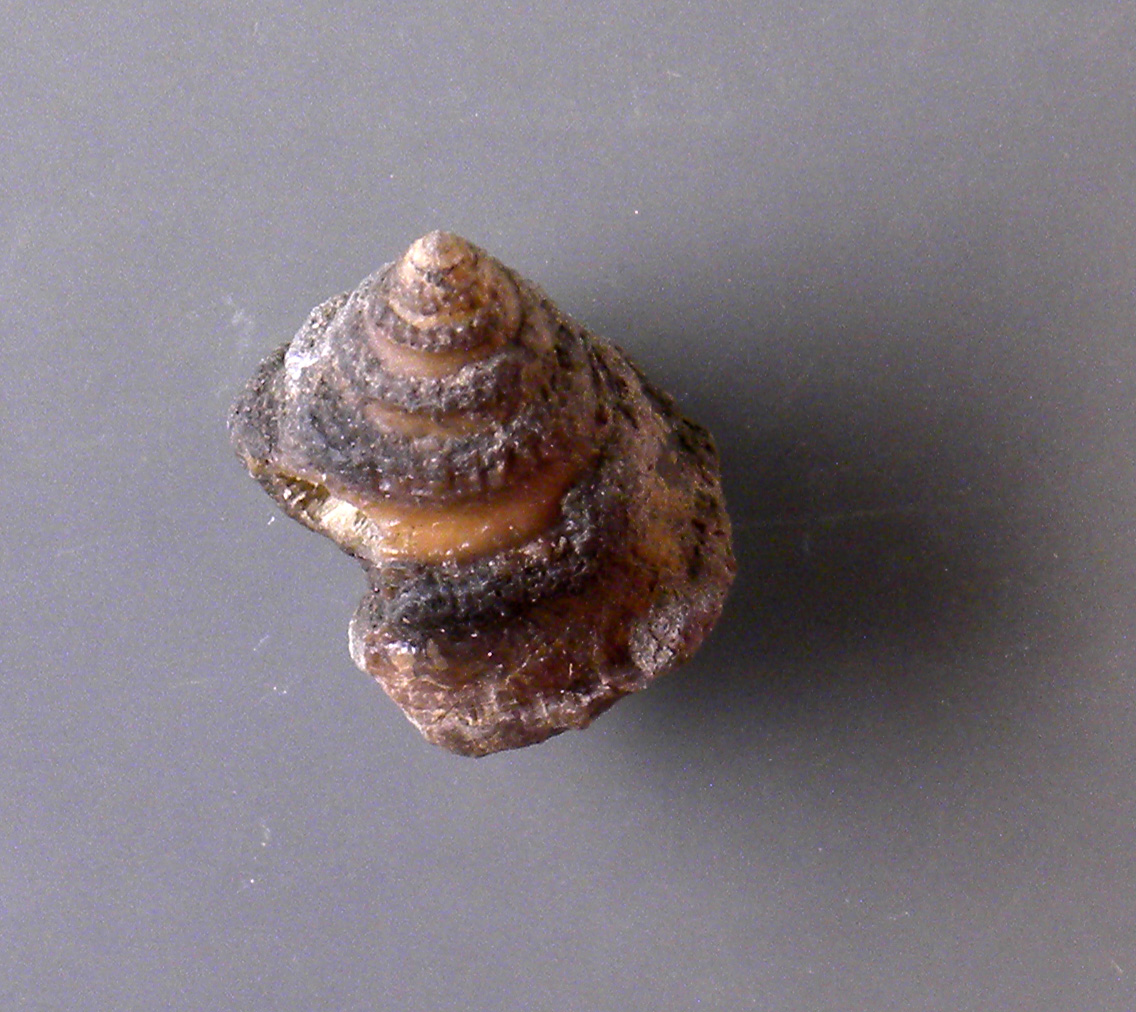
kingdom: Animalia
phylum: Mollusca
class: Gastropoda
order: Trochida
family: Nododelphinulidae
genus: Costatrochus
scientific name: Costatrochus subduplicatus
